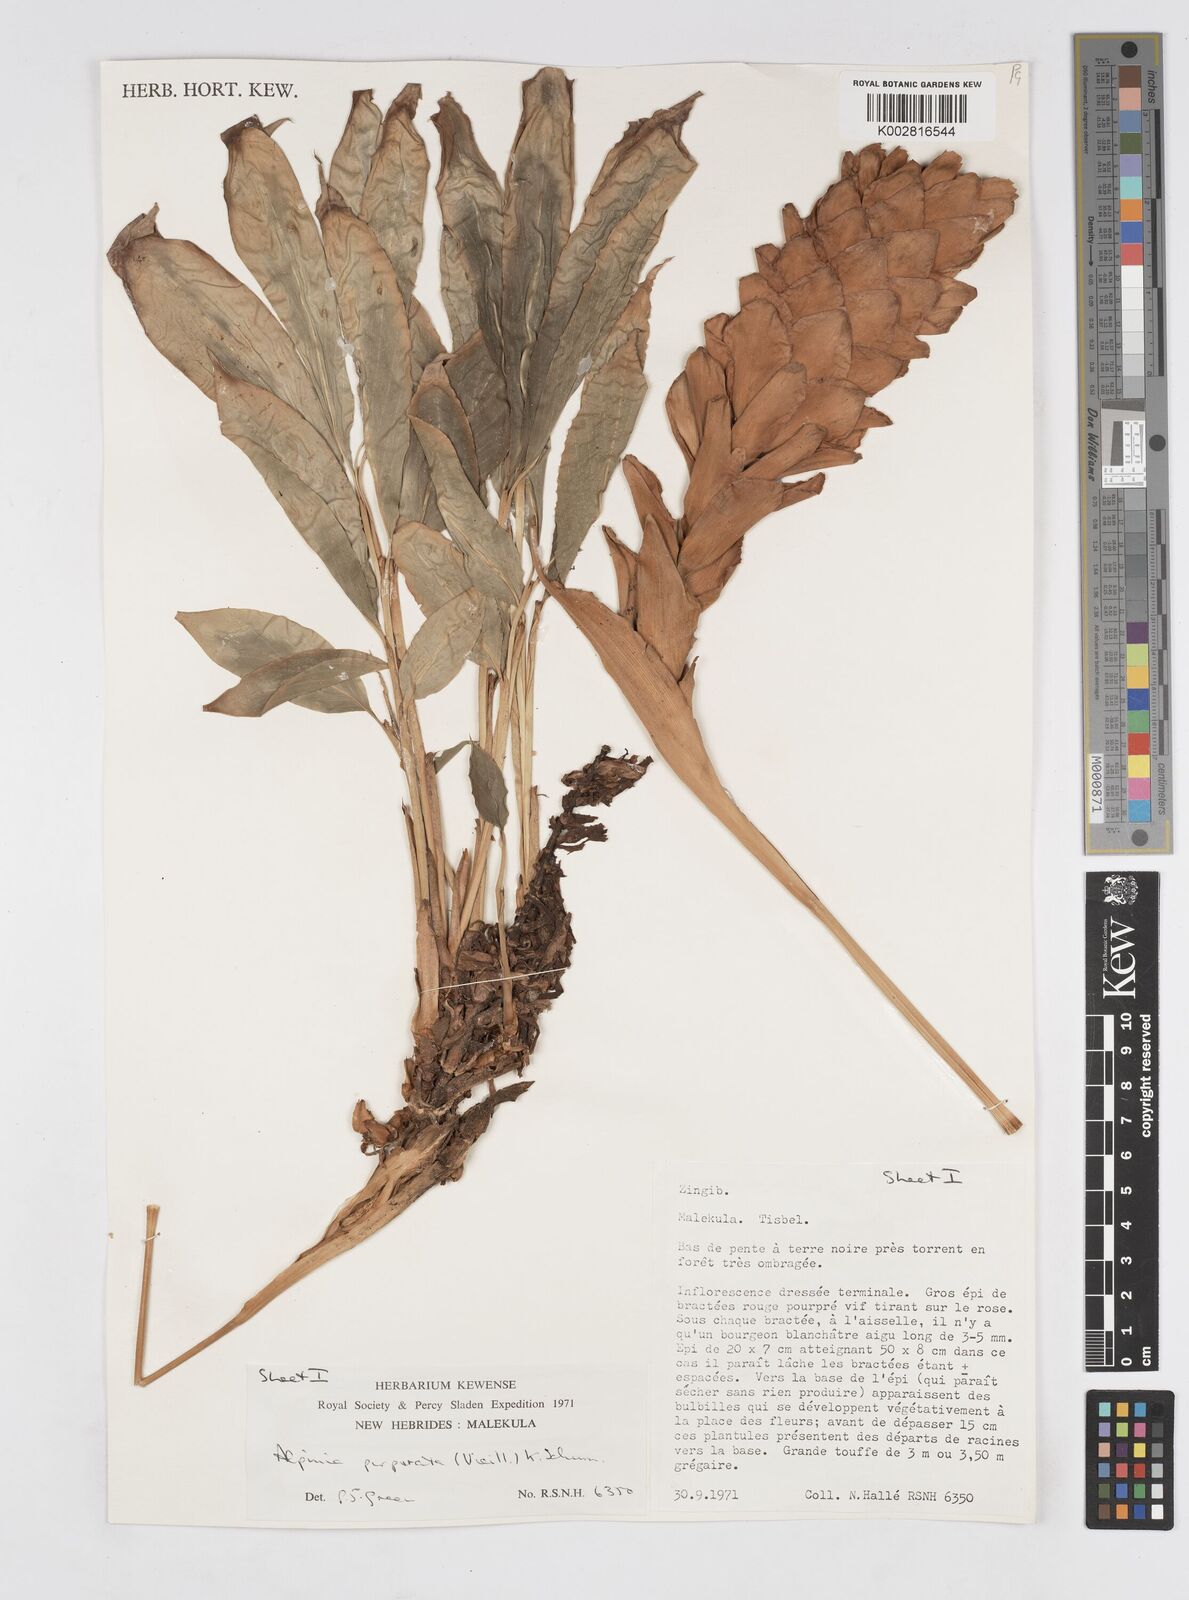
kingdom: Plantae
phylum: Tracheophyta
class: Liliopsida
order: Zingiberales
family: Zingiberaceae
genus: Alpinia
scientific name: Alpinia purpurata
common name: Red ginger
